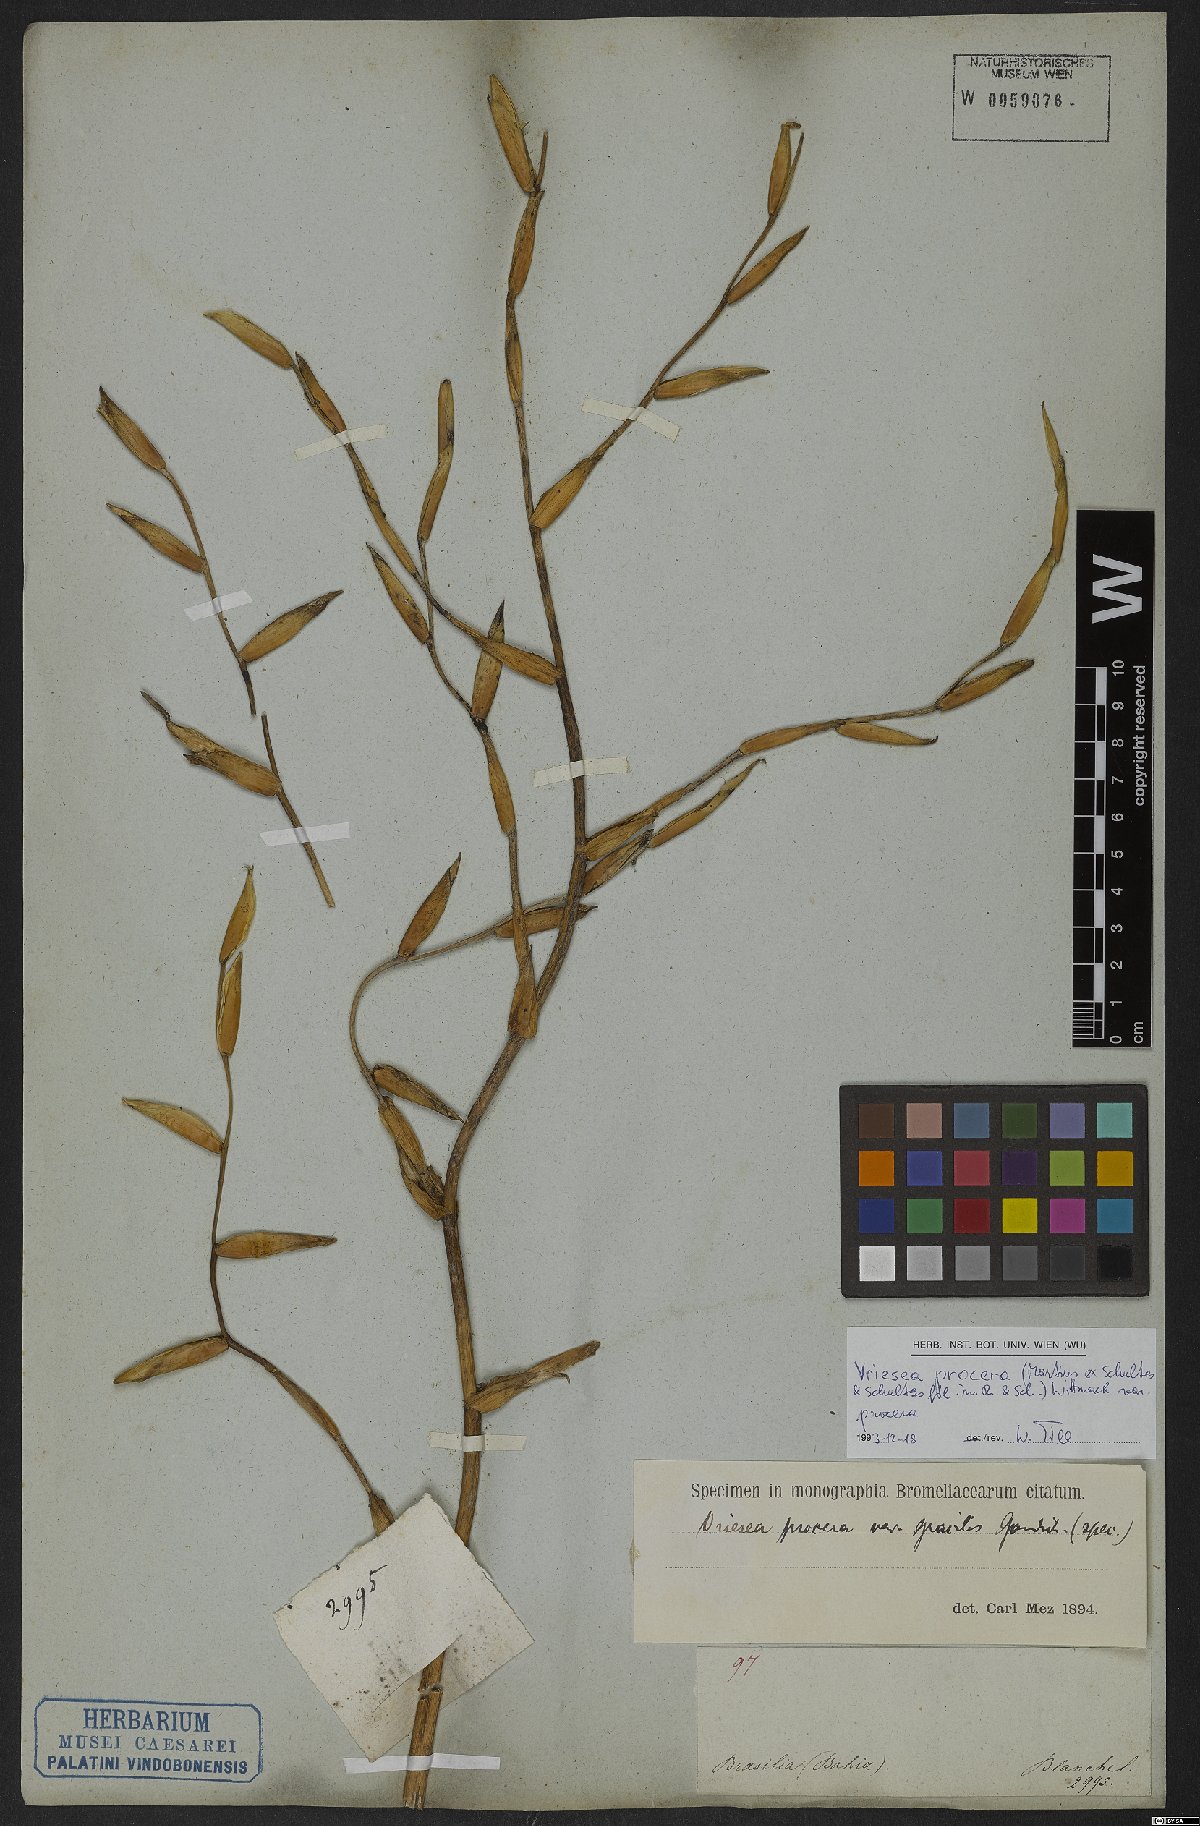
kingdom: Plantae
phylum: Tracheophyta
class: Liliopsida
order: Poales
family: Bromeliaceae
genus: Vriesea
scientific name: Vriesea procera
